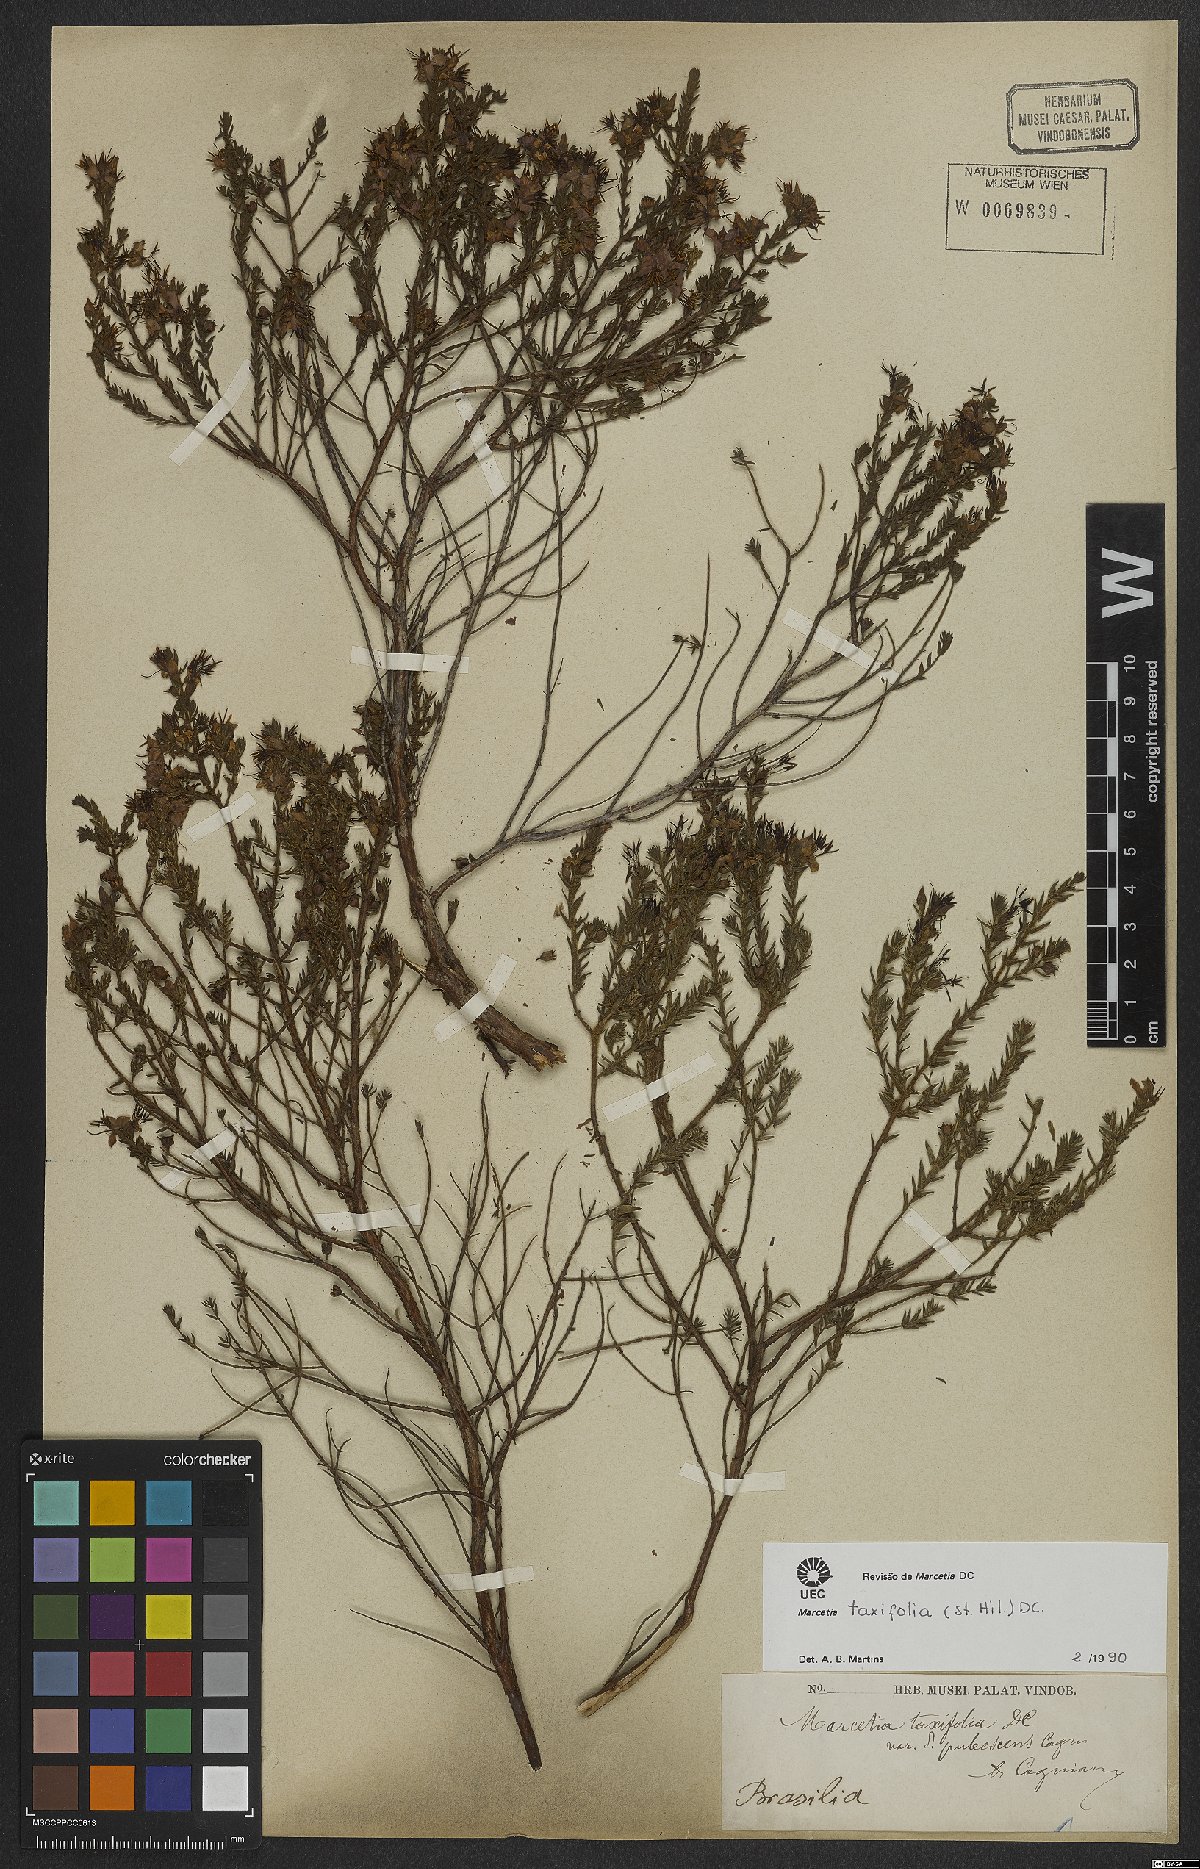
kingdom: Plantae
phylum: Tracheophyta
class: Magnoliopsida
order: Myrtales
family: Melastomataceae
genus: Marcetia
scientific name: Marcetia taxifolia
